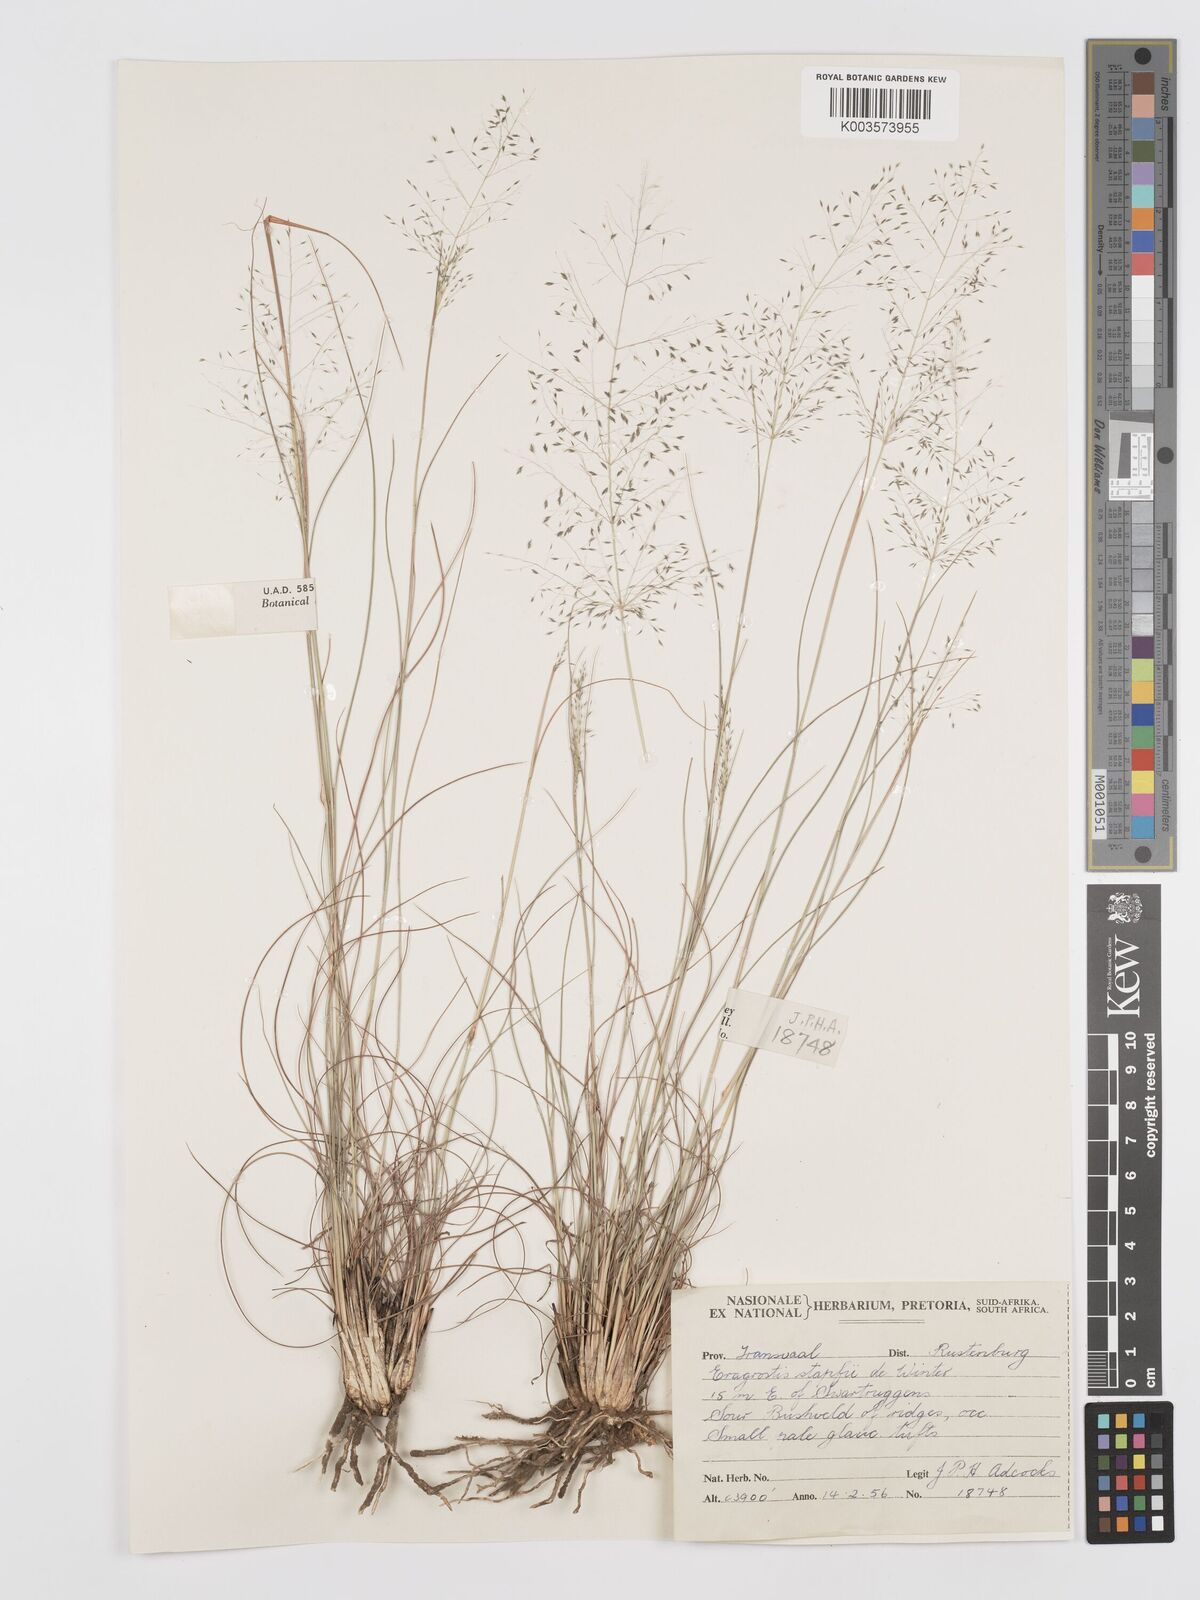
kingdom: Plantae
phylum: Tracheophyta
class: Liliopsida
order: Poales
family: Poaceae
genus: Eragrostis
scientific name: Eragrostis stapfii
